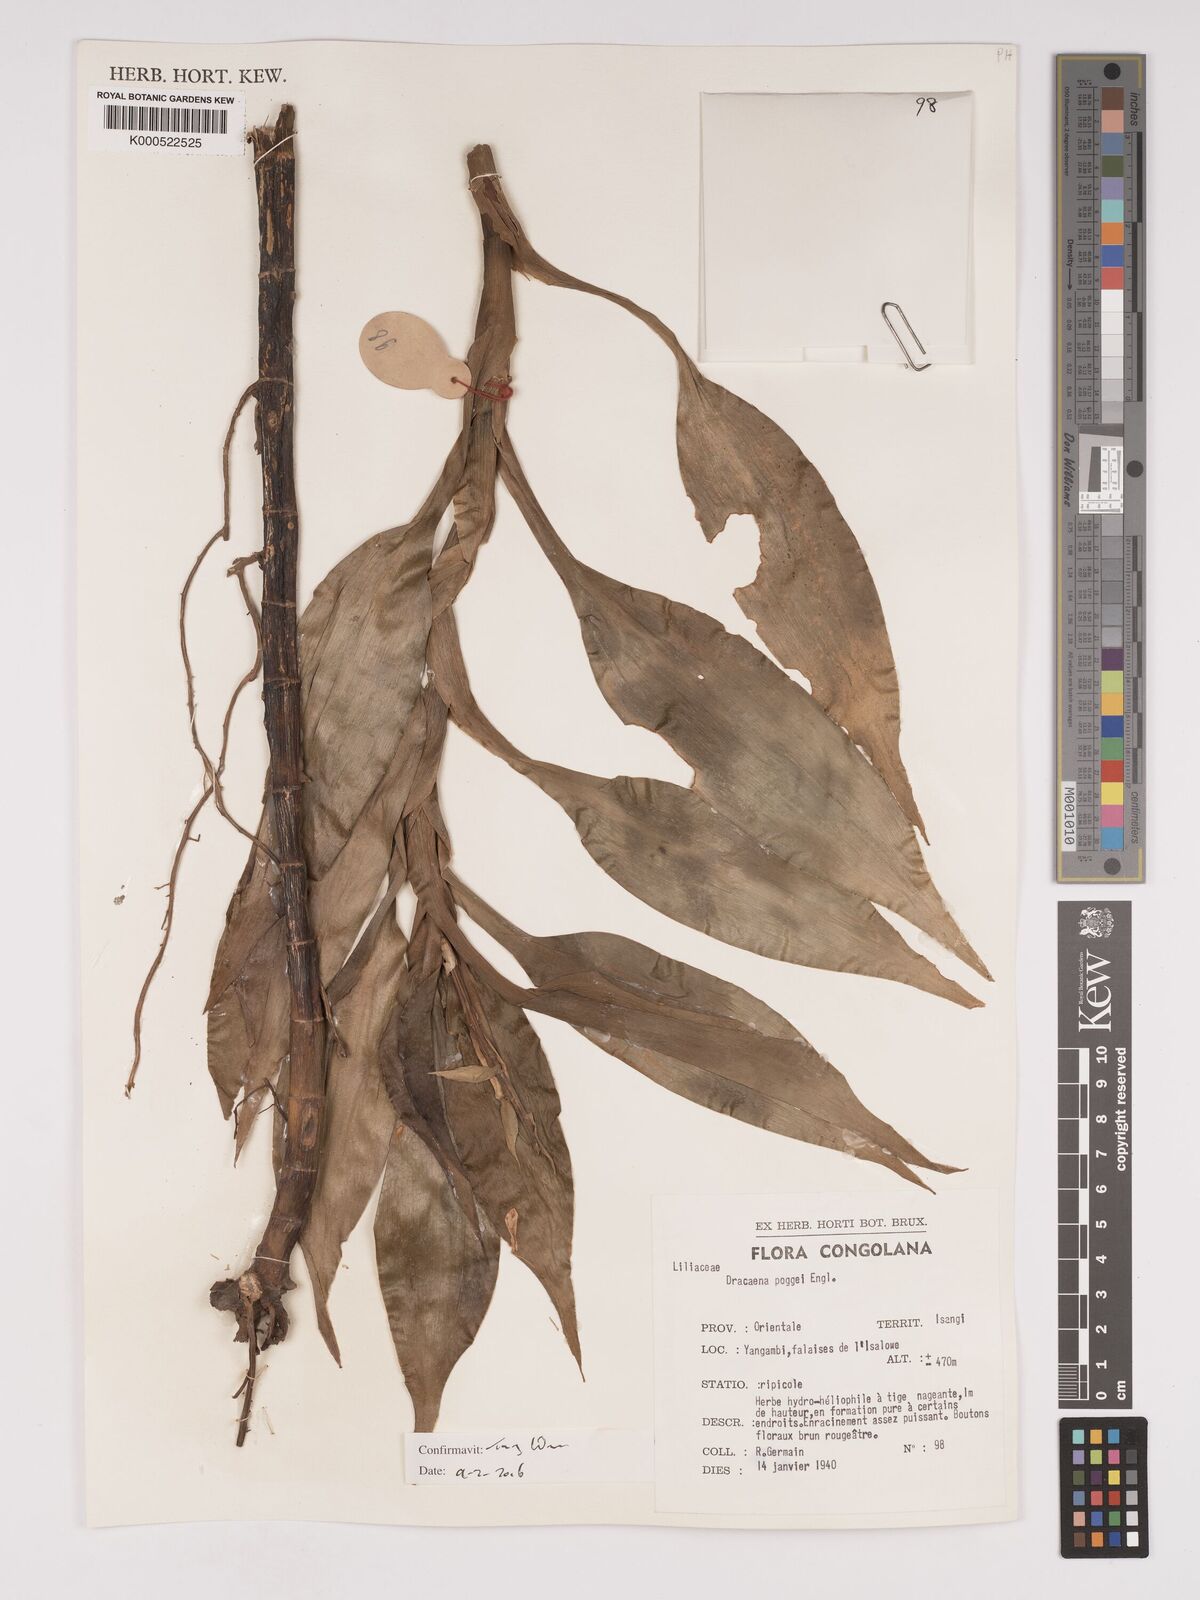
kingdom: Plantae
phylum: Tracheophyta
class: Liliopsida
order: Asparagales
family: Asparagaceae
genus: Dracaena
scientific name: Dracaena sanderiana
